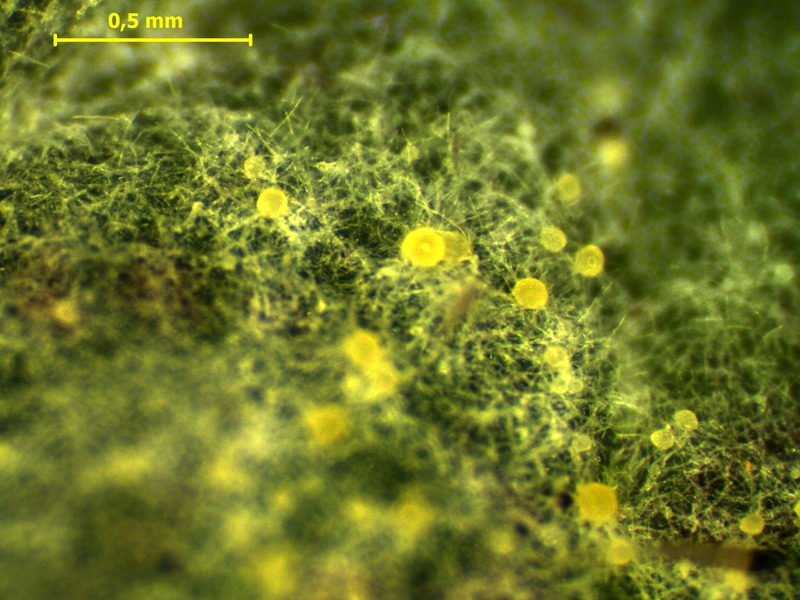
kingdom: Fungi
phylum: Ascomycota
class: Leotiomycetes
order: Helotiales
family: Erysiphaceae
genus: Neoerysiphe
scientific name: Neoerysiphe galeopsidis
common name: Mint mildew
